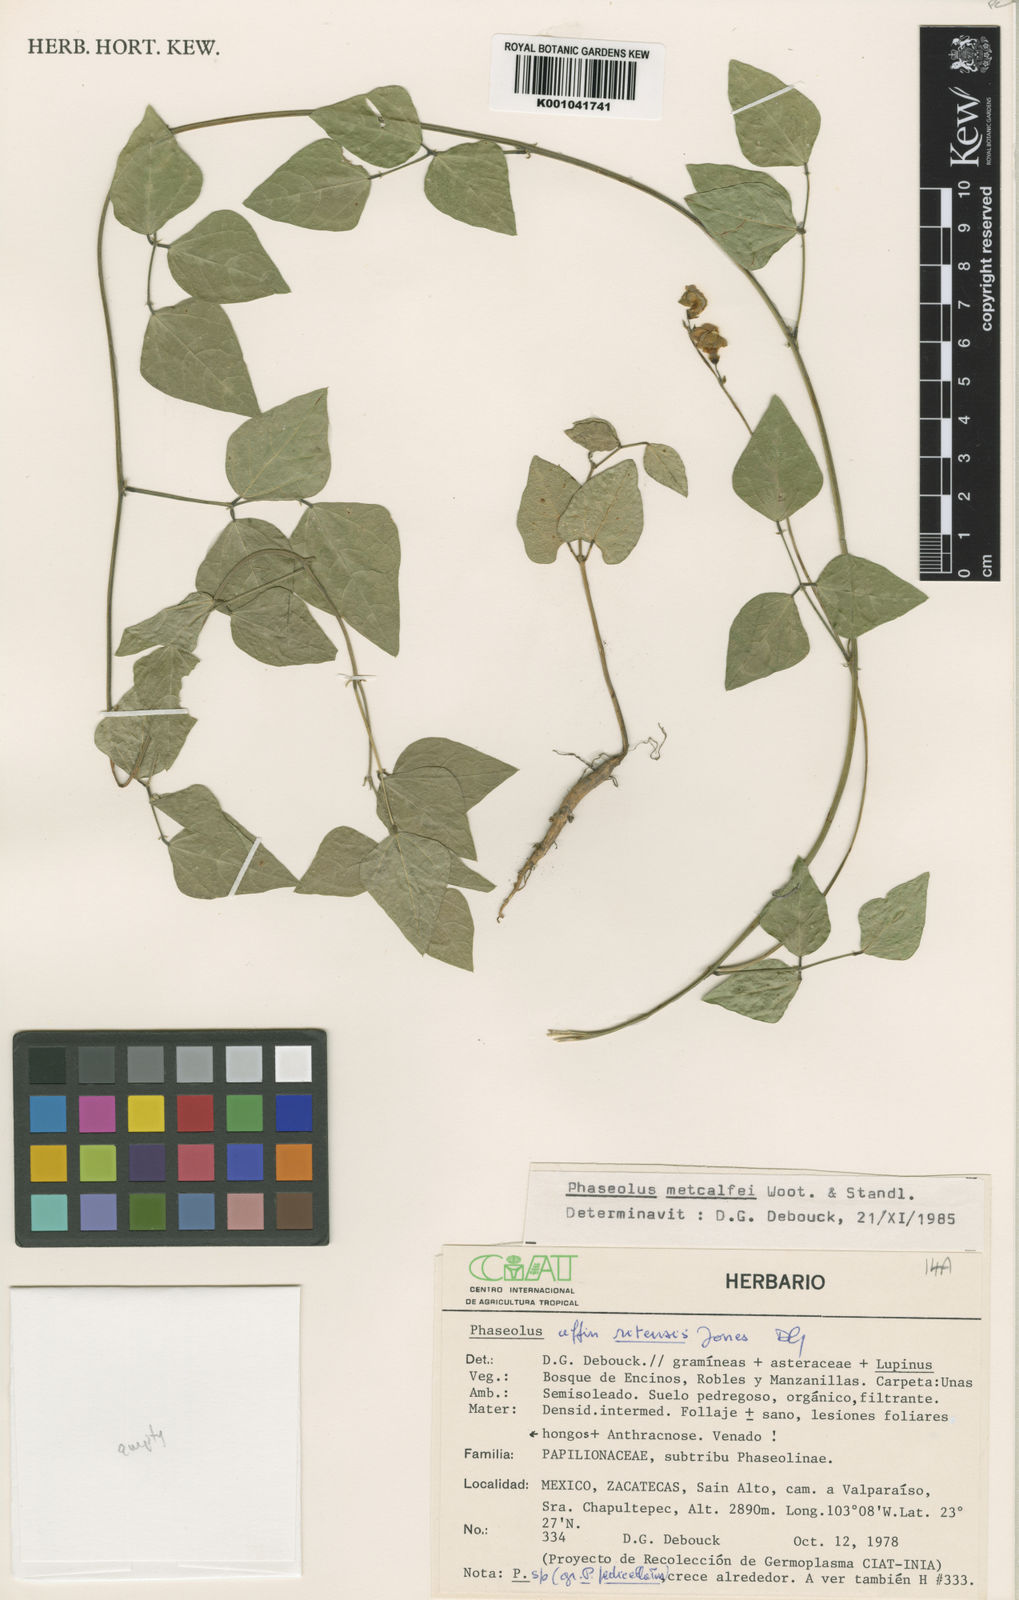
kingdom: Plantae
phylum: Tracheophyta
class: Magnoliopsida
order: Fabales
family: Fabaceae
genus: Phaseolus
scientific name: Phaseolus
